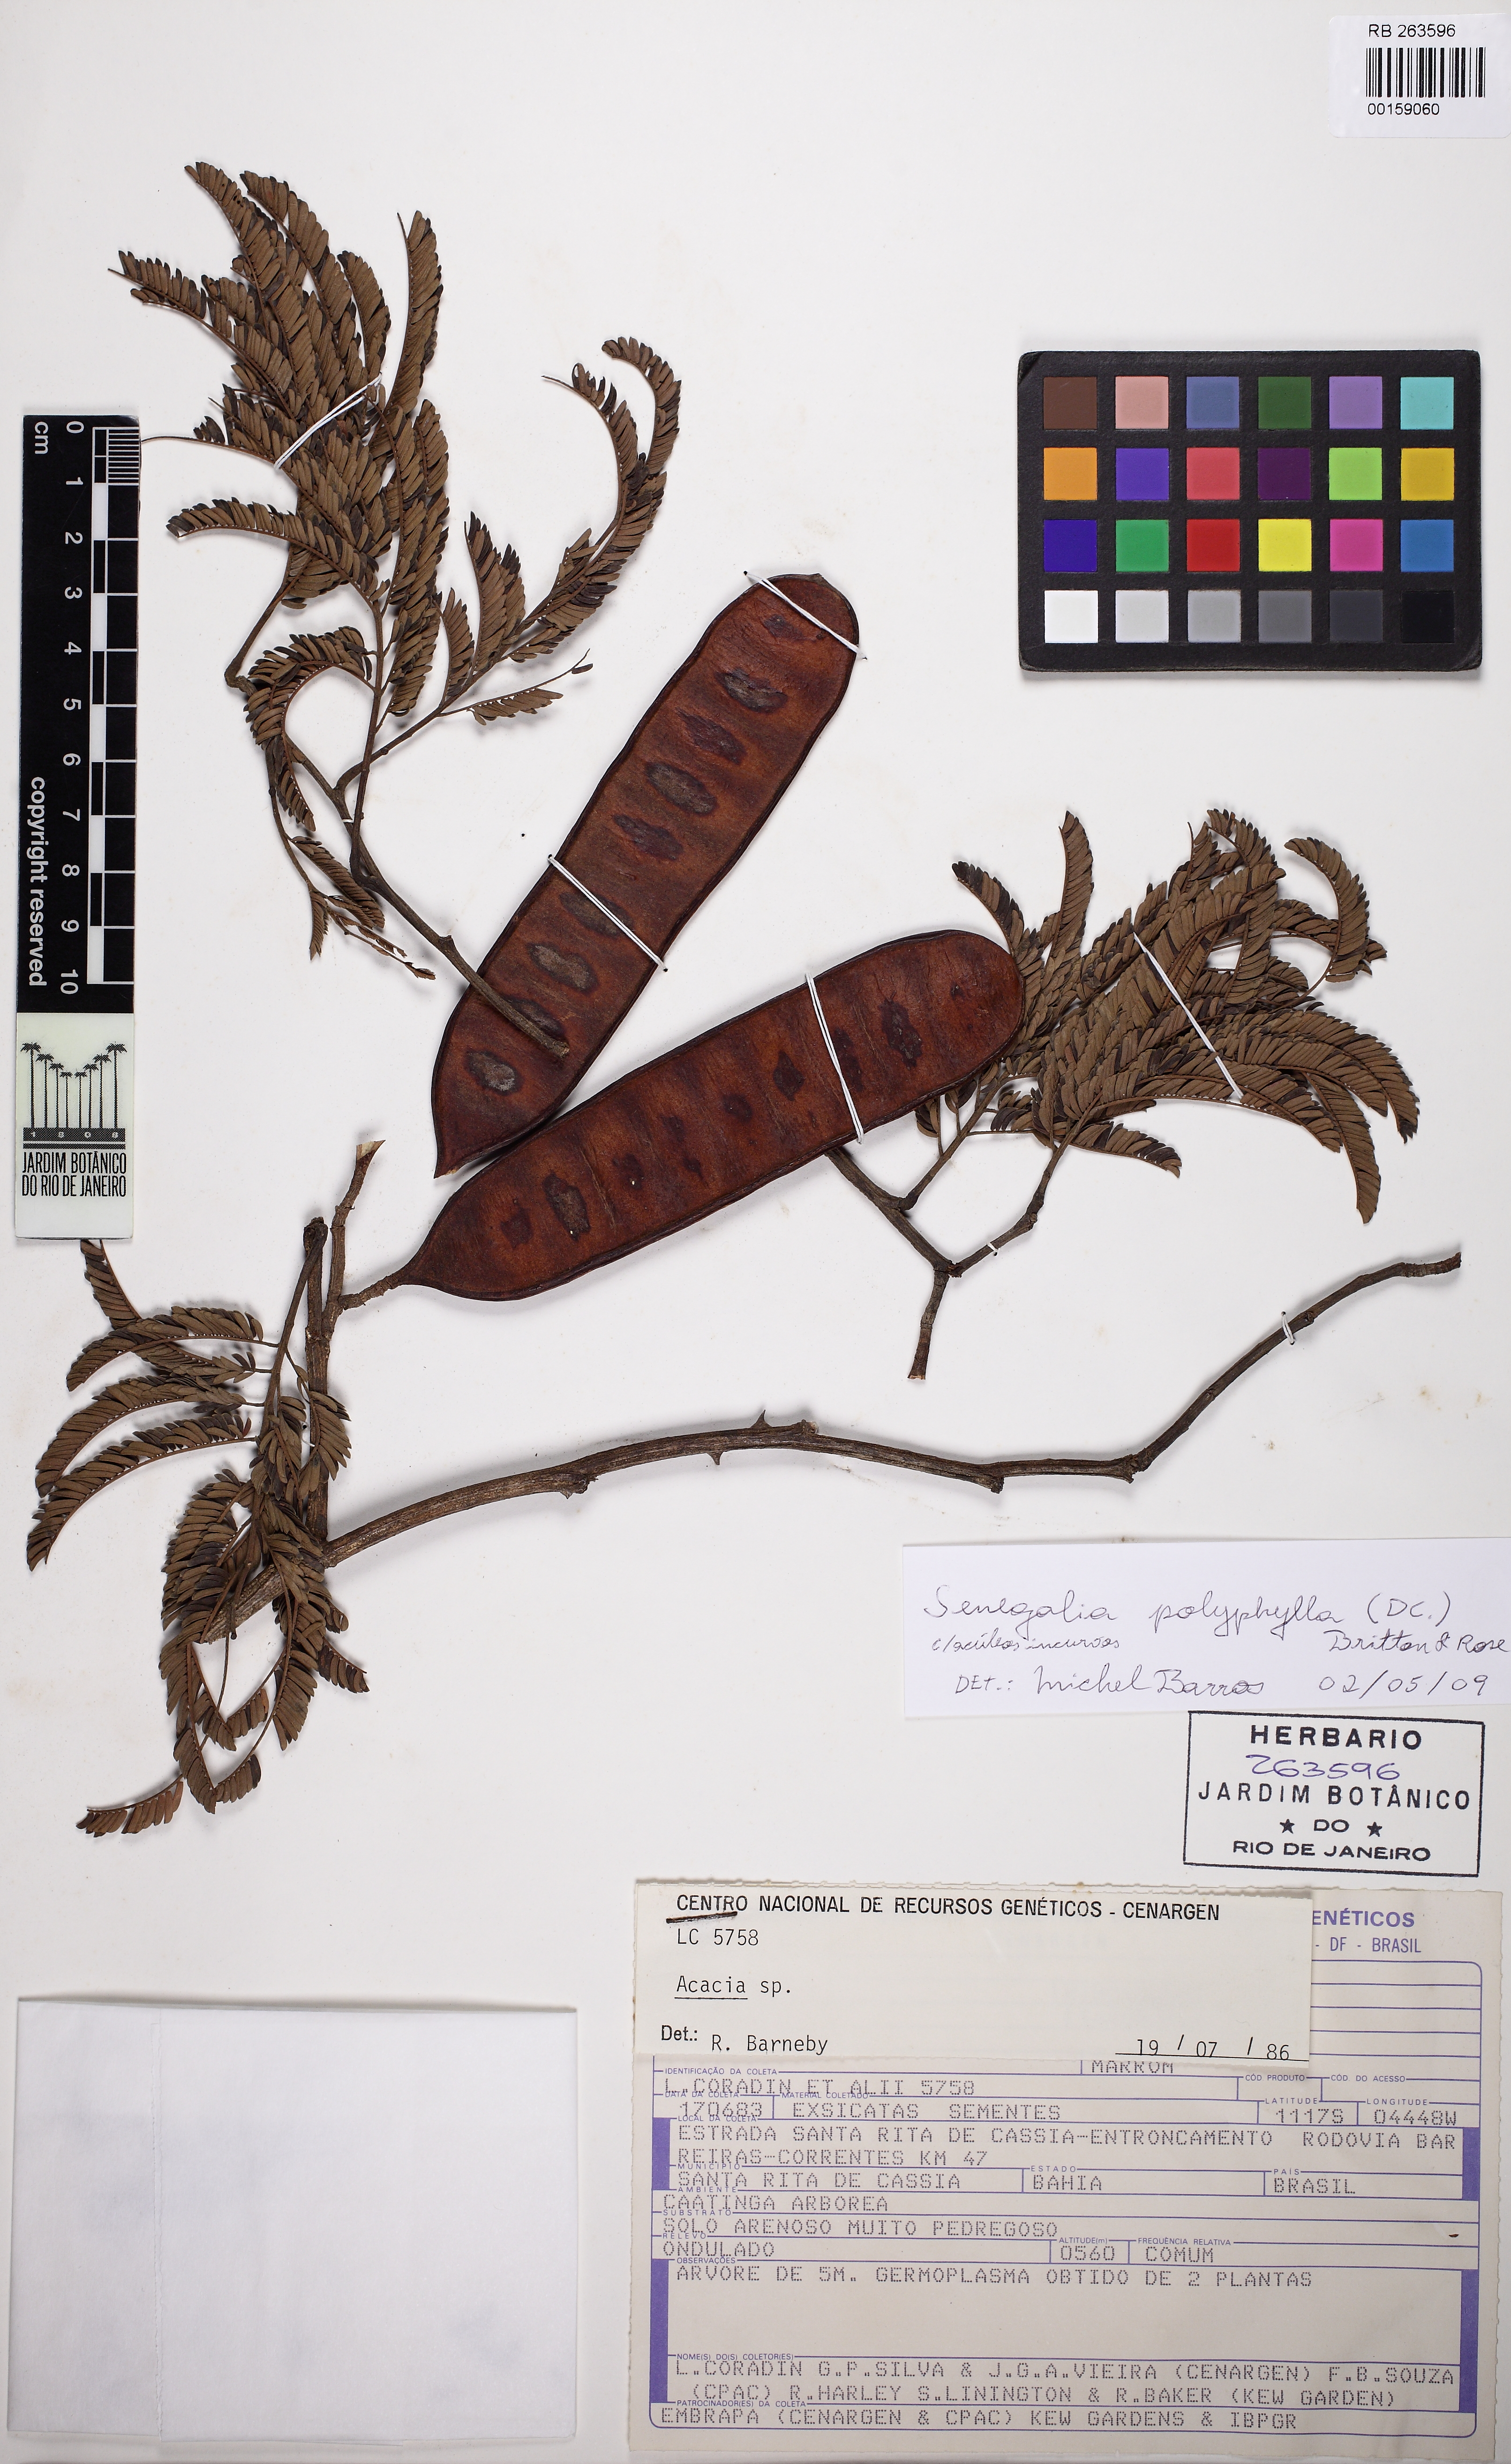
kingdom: Plantae
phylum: Tracheophyta
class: Magnoliopsida
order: Fabales
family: Fabaceae
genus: Senegalia
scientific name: Senegalia polyphylla
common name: White-tamarind
